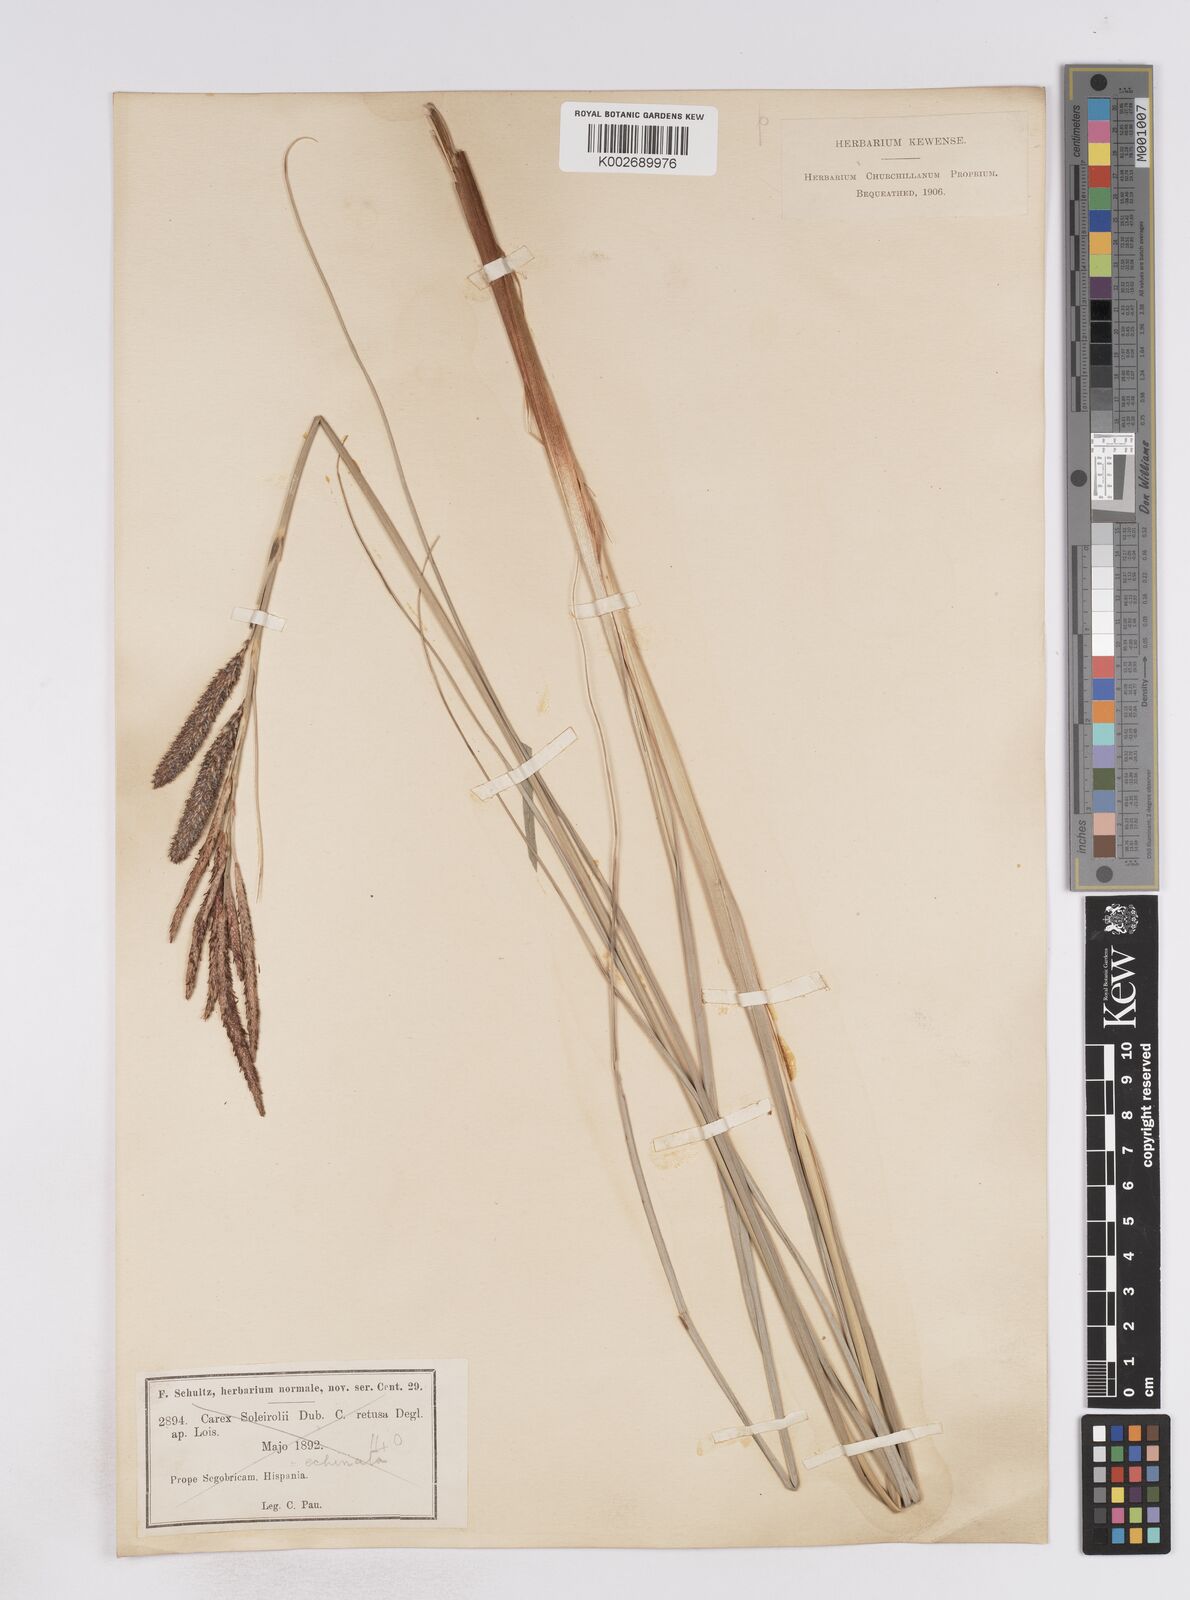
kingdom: Plantae
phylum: Tracheophyta
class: Liliopsida
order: Poales
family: Cyperaceae
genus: Carex
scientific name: Carex hispida
